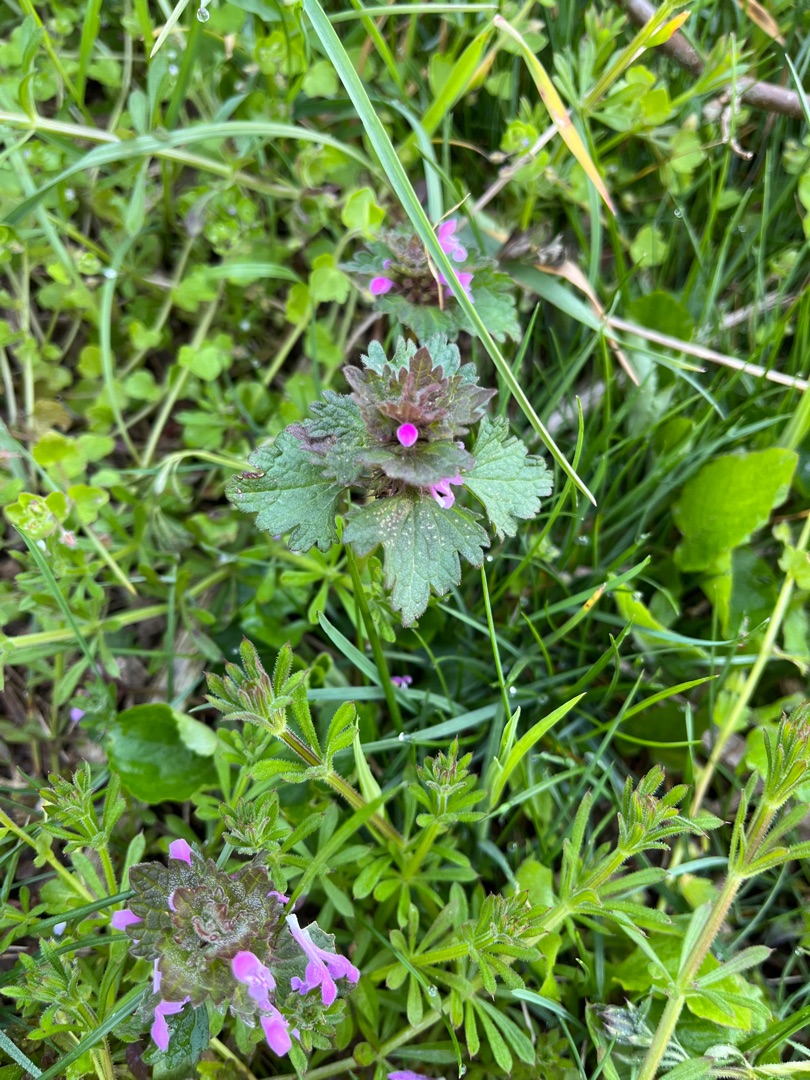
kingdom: Plantae
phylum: Tracheophyta
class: Magnoliopsida
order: Lamiales
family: Lamiaceae
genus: Lamium
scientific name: Lamium hybridum
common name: Fliget tvetand
